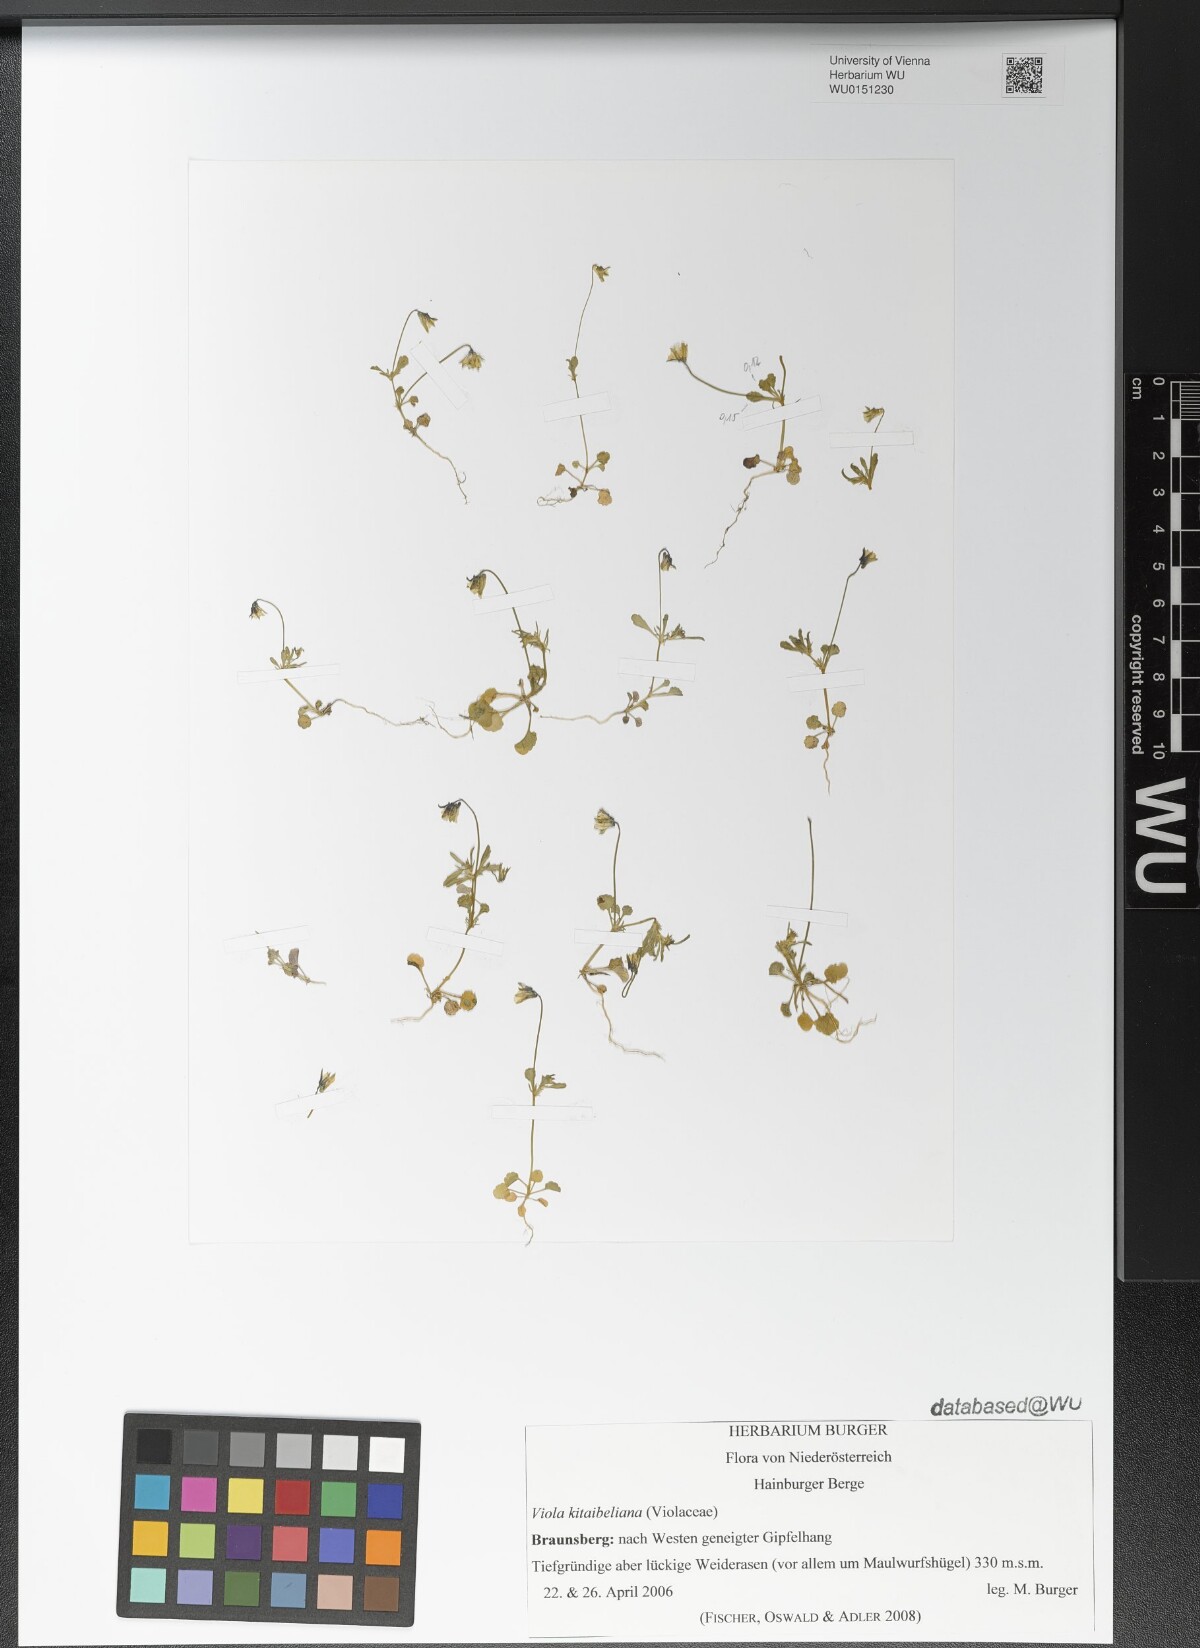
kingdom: Plantae
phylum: Tracheophyta
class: Magnoliopsida
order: Malpighiales
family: Violaceae
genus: Viola
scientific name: Viola kitaibeliana
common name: Dwarf pansy
